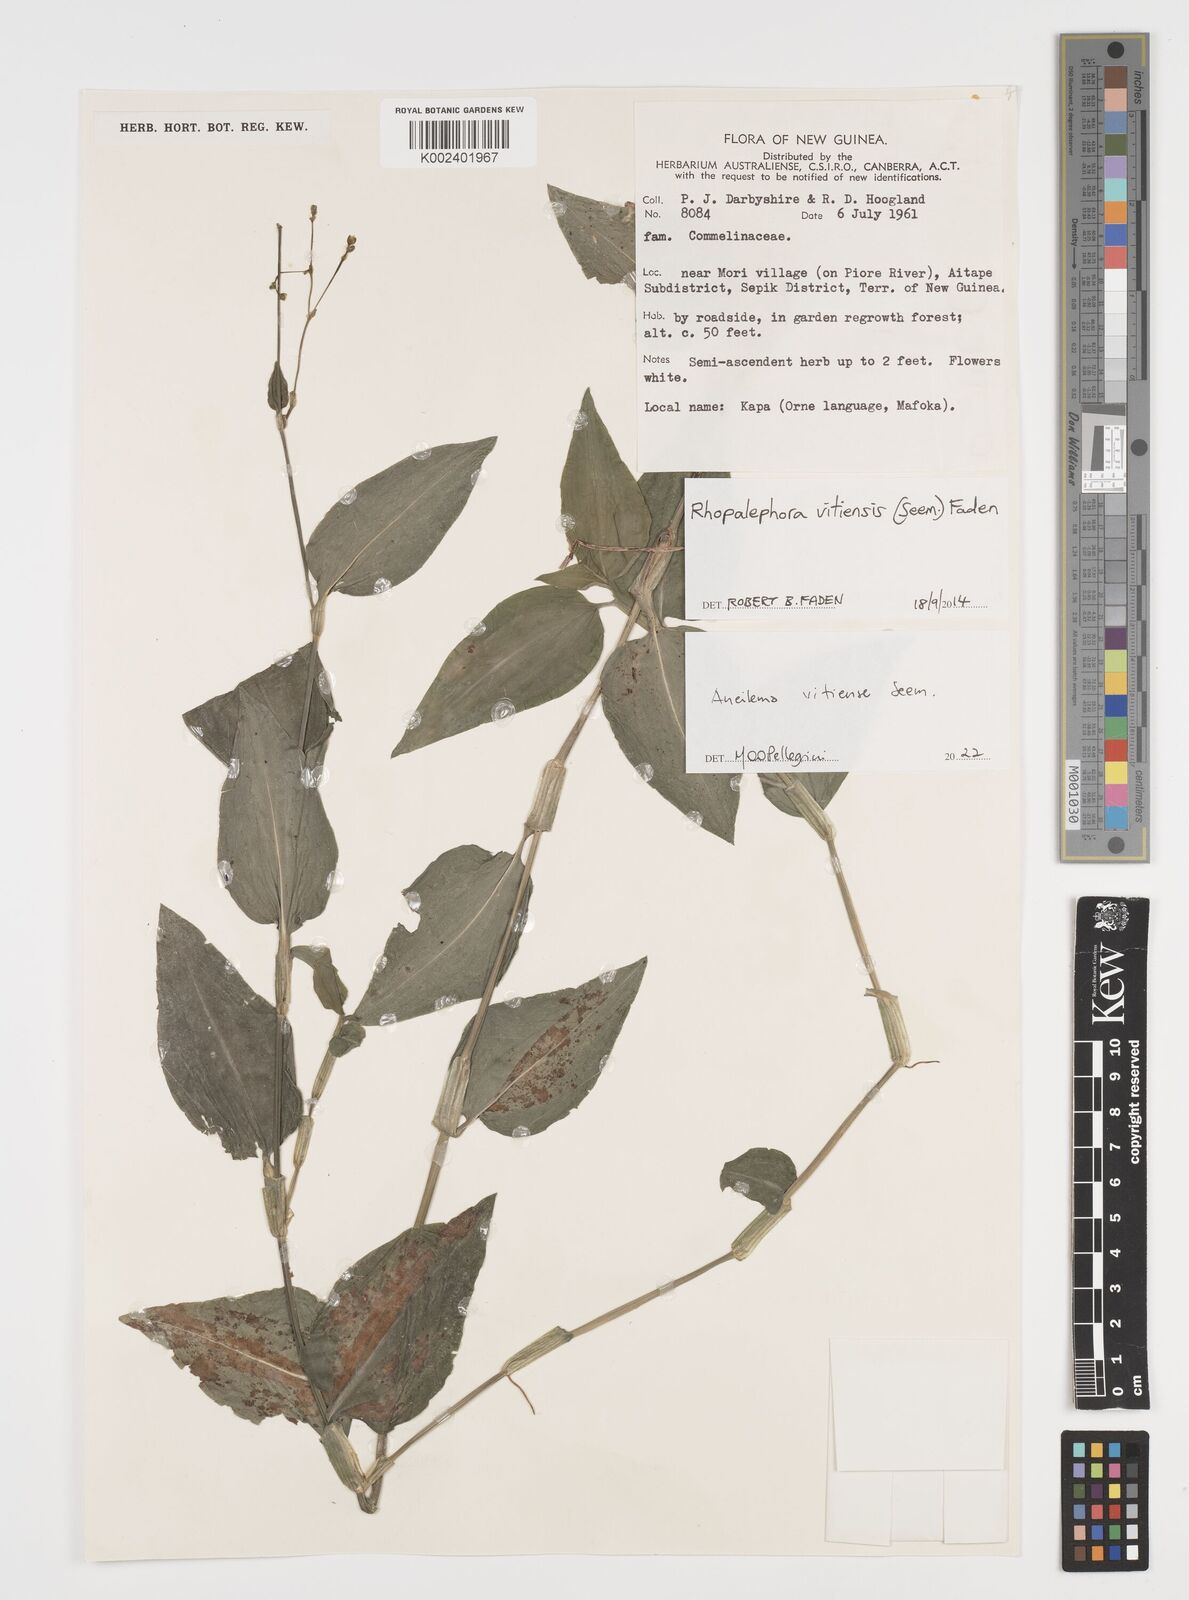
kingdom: Plantae
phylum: Tracheophyta
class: Liliopsida
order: Commelinales
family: Commelinaceae
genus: Rhopalephora
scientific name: Rhopalephora vitiensis
